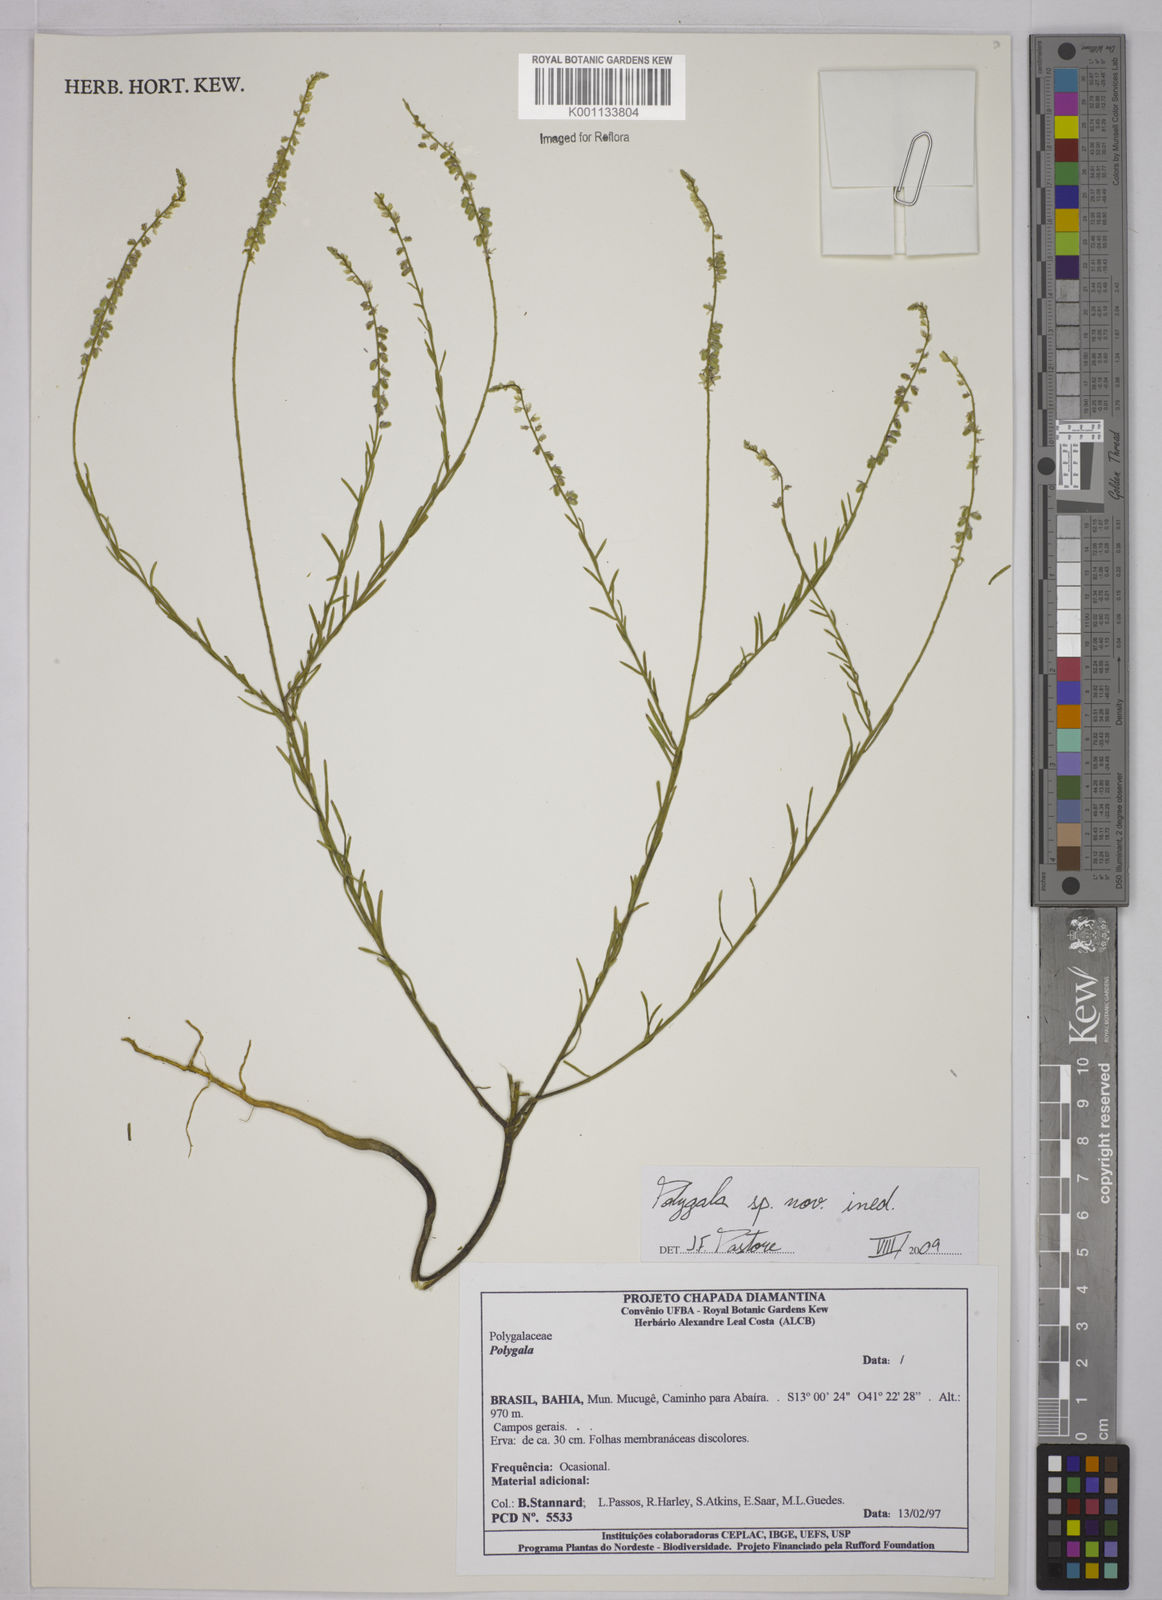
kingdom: Plantae
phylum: Tracheophyta
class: Magnoliopsida
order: Fabales
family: Polygalaceae
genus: Polygala
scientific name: Polygala
